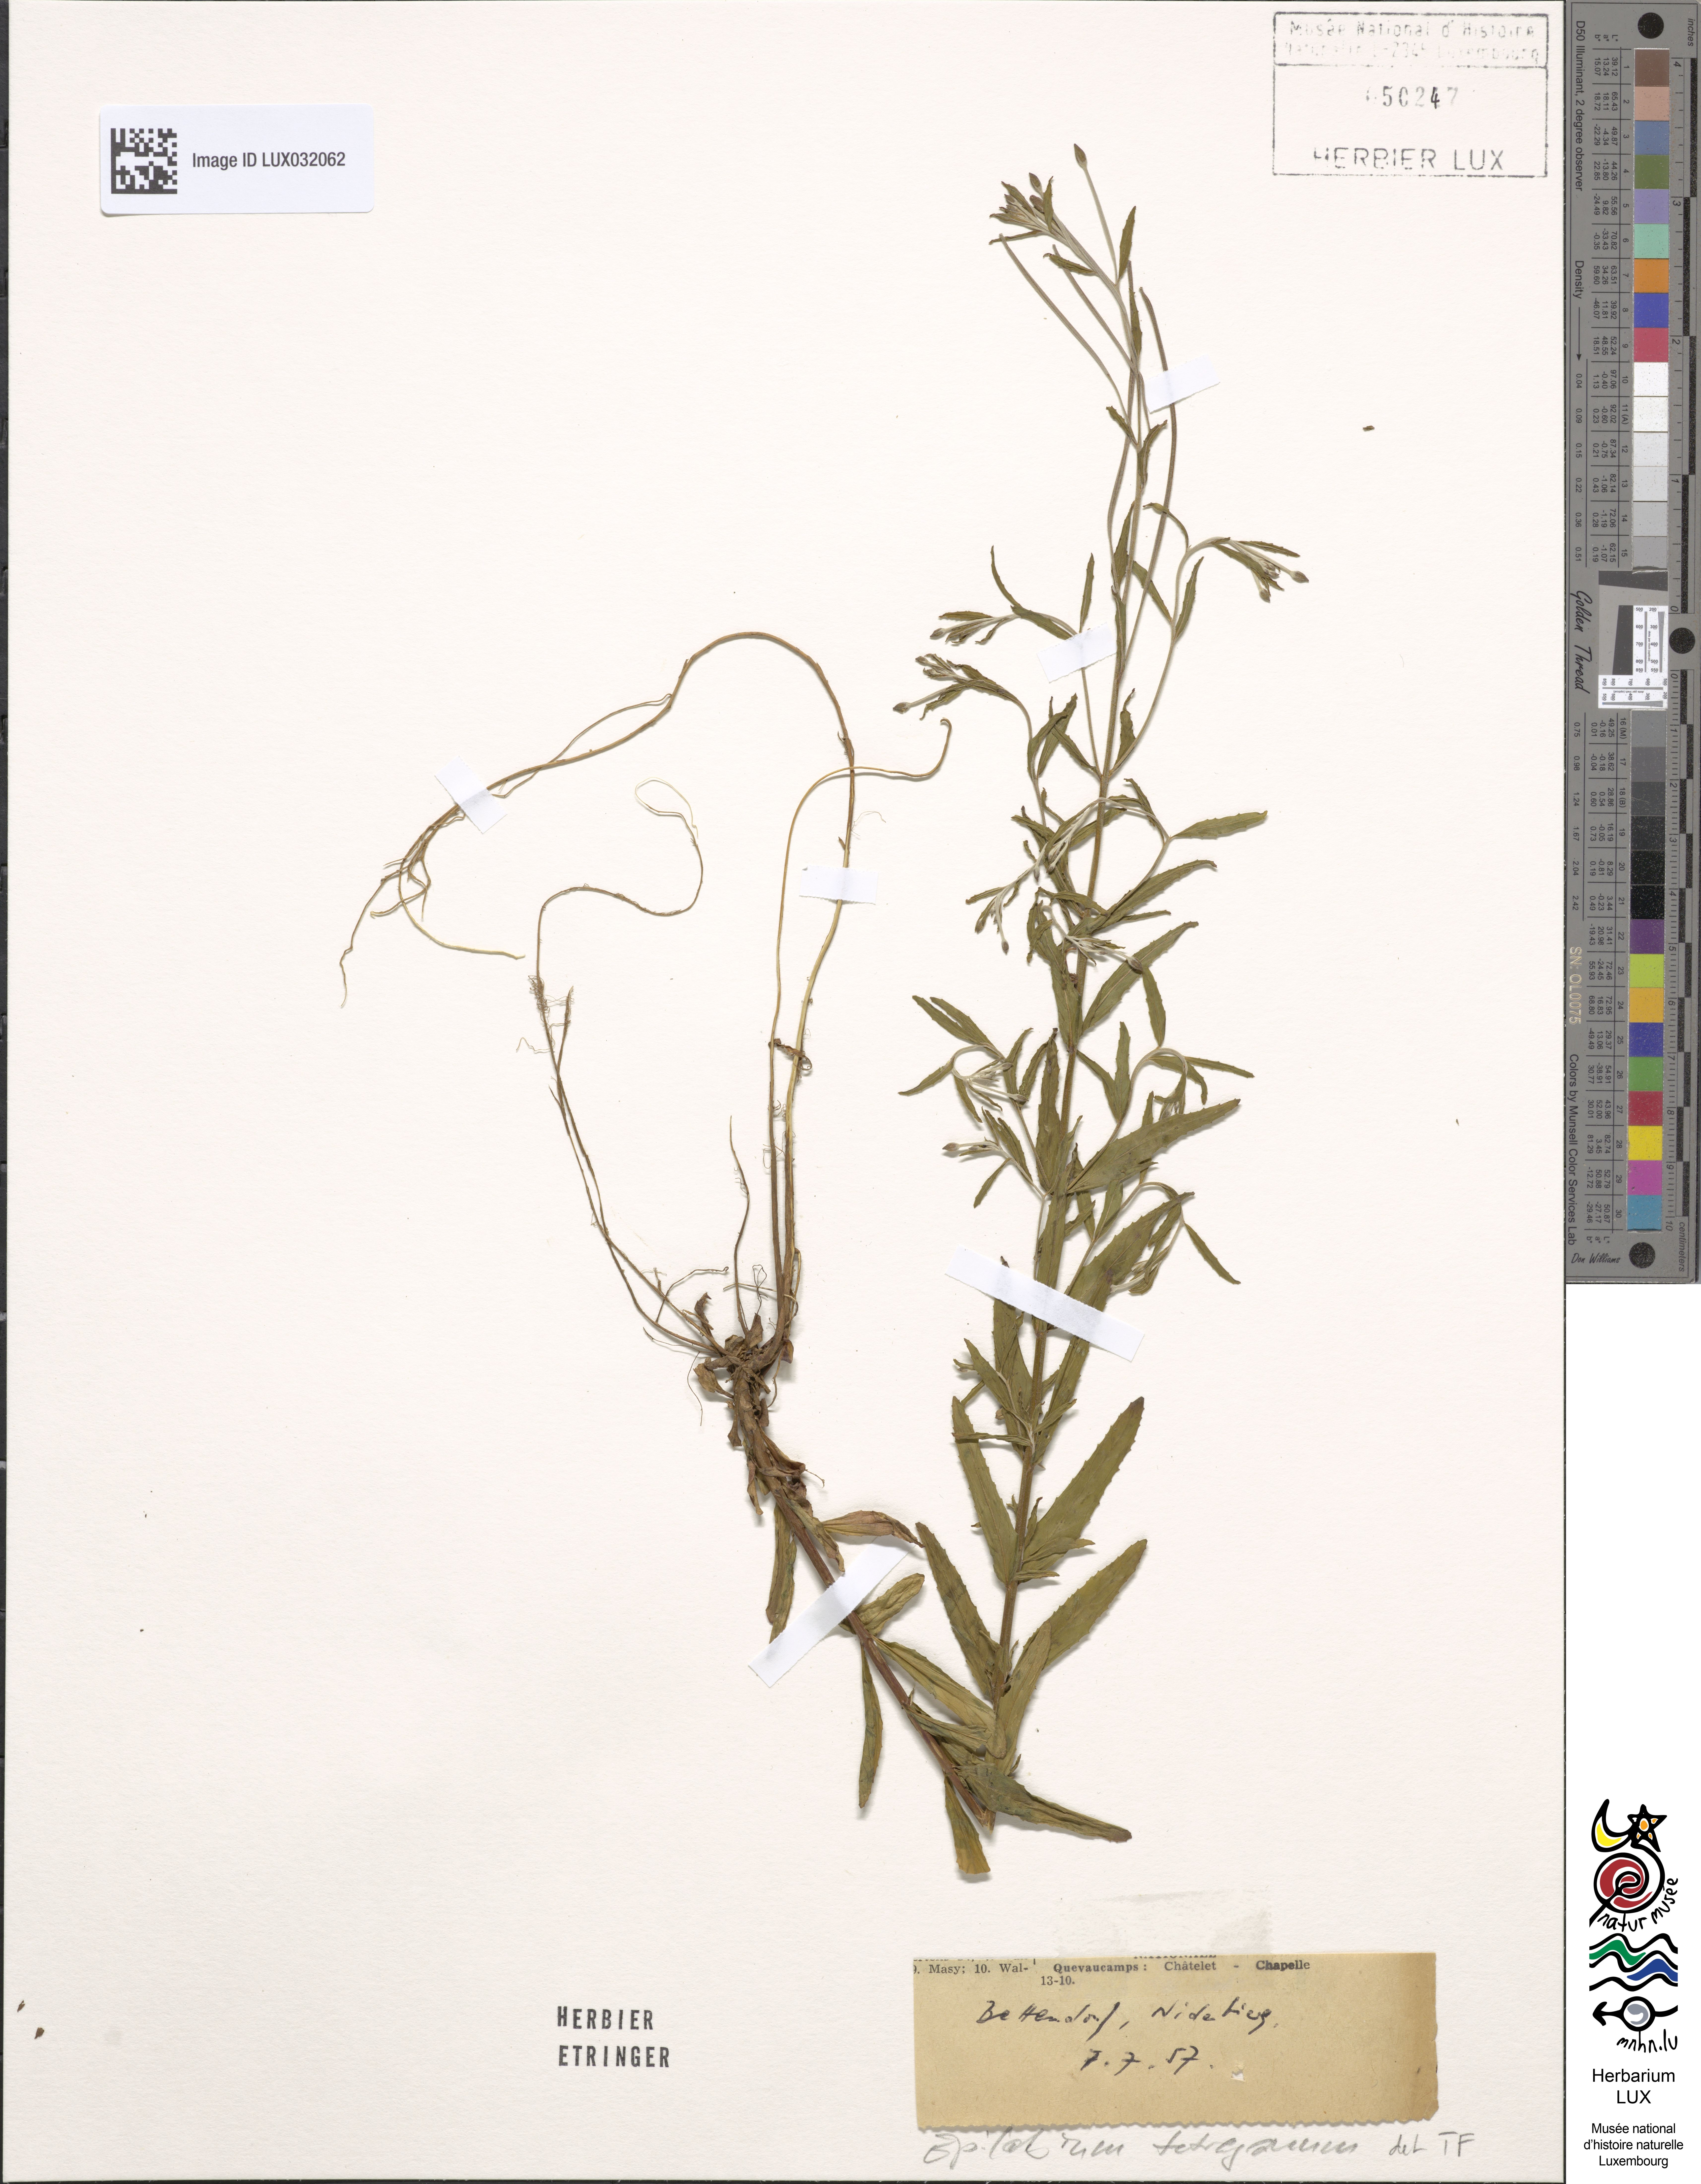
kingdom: Plantae
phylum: Tracheophyta
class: Magnoliopsida
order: Myrtales
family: Onagraceae
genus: Epilobium
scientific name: Epilobium tetragonum
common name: Square-stemmed willowherb
